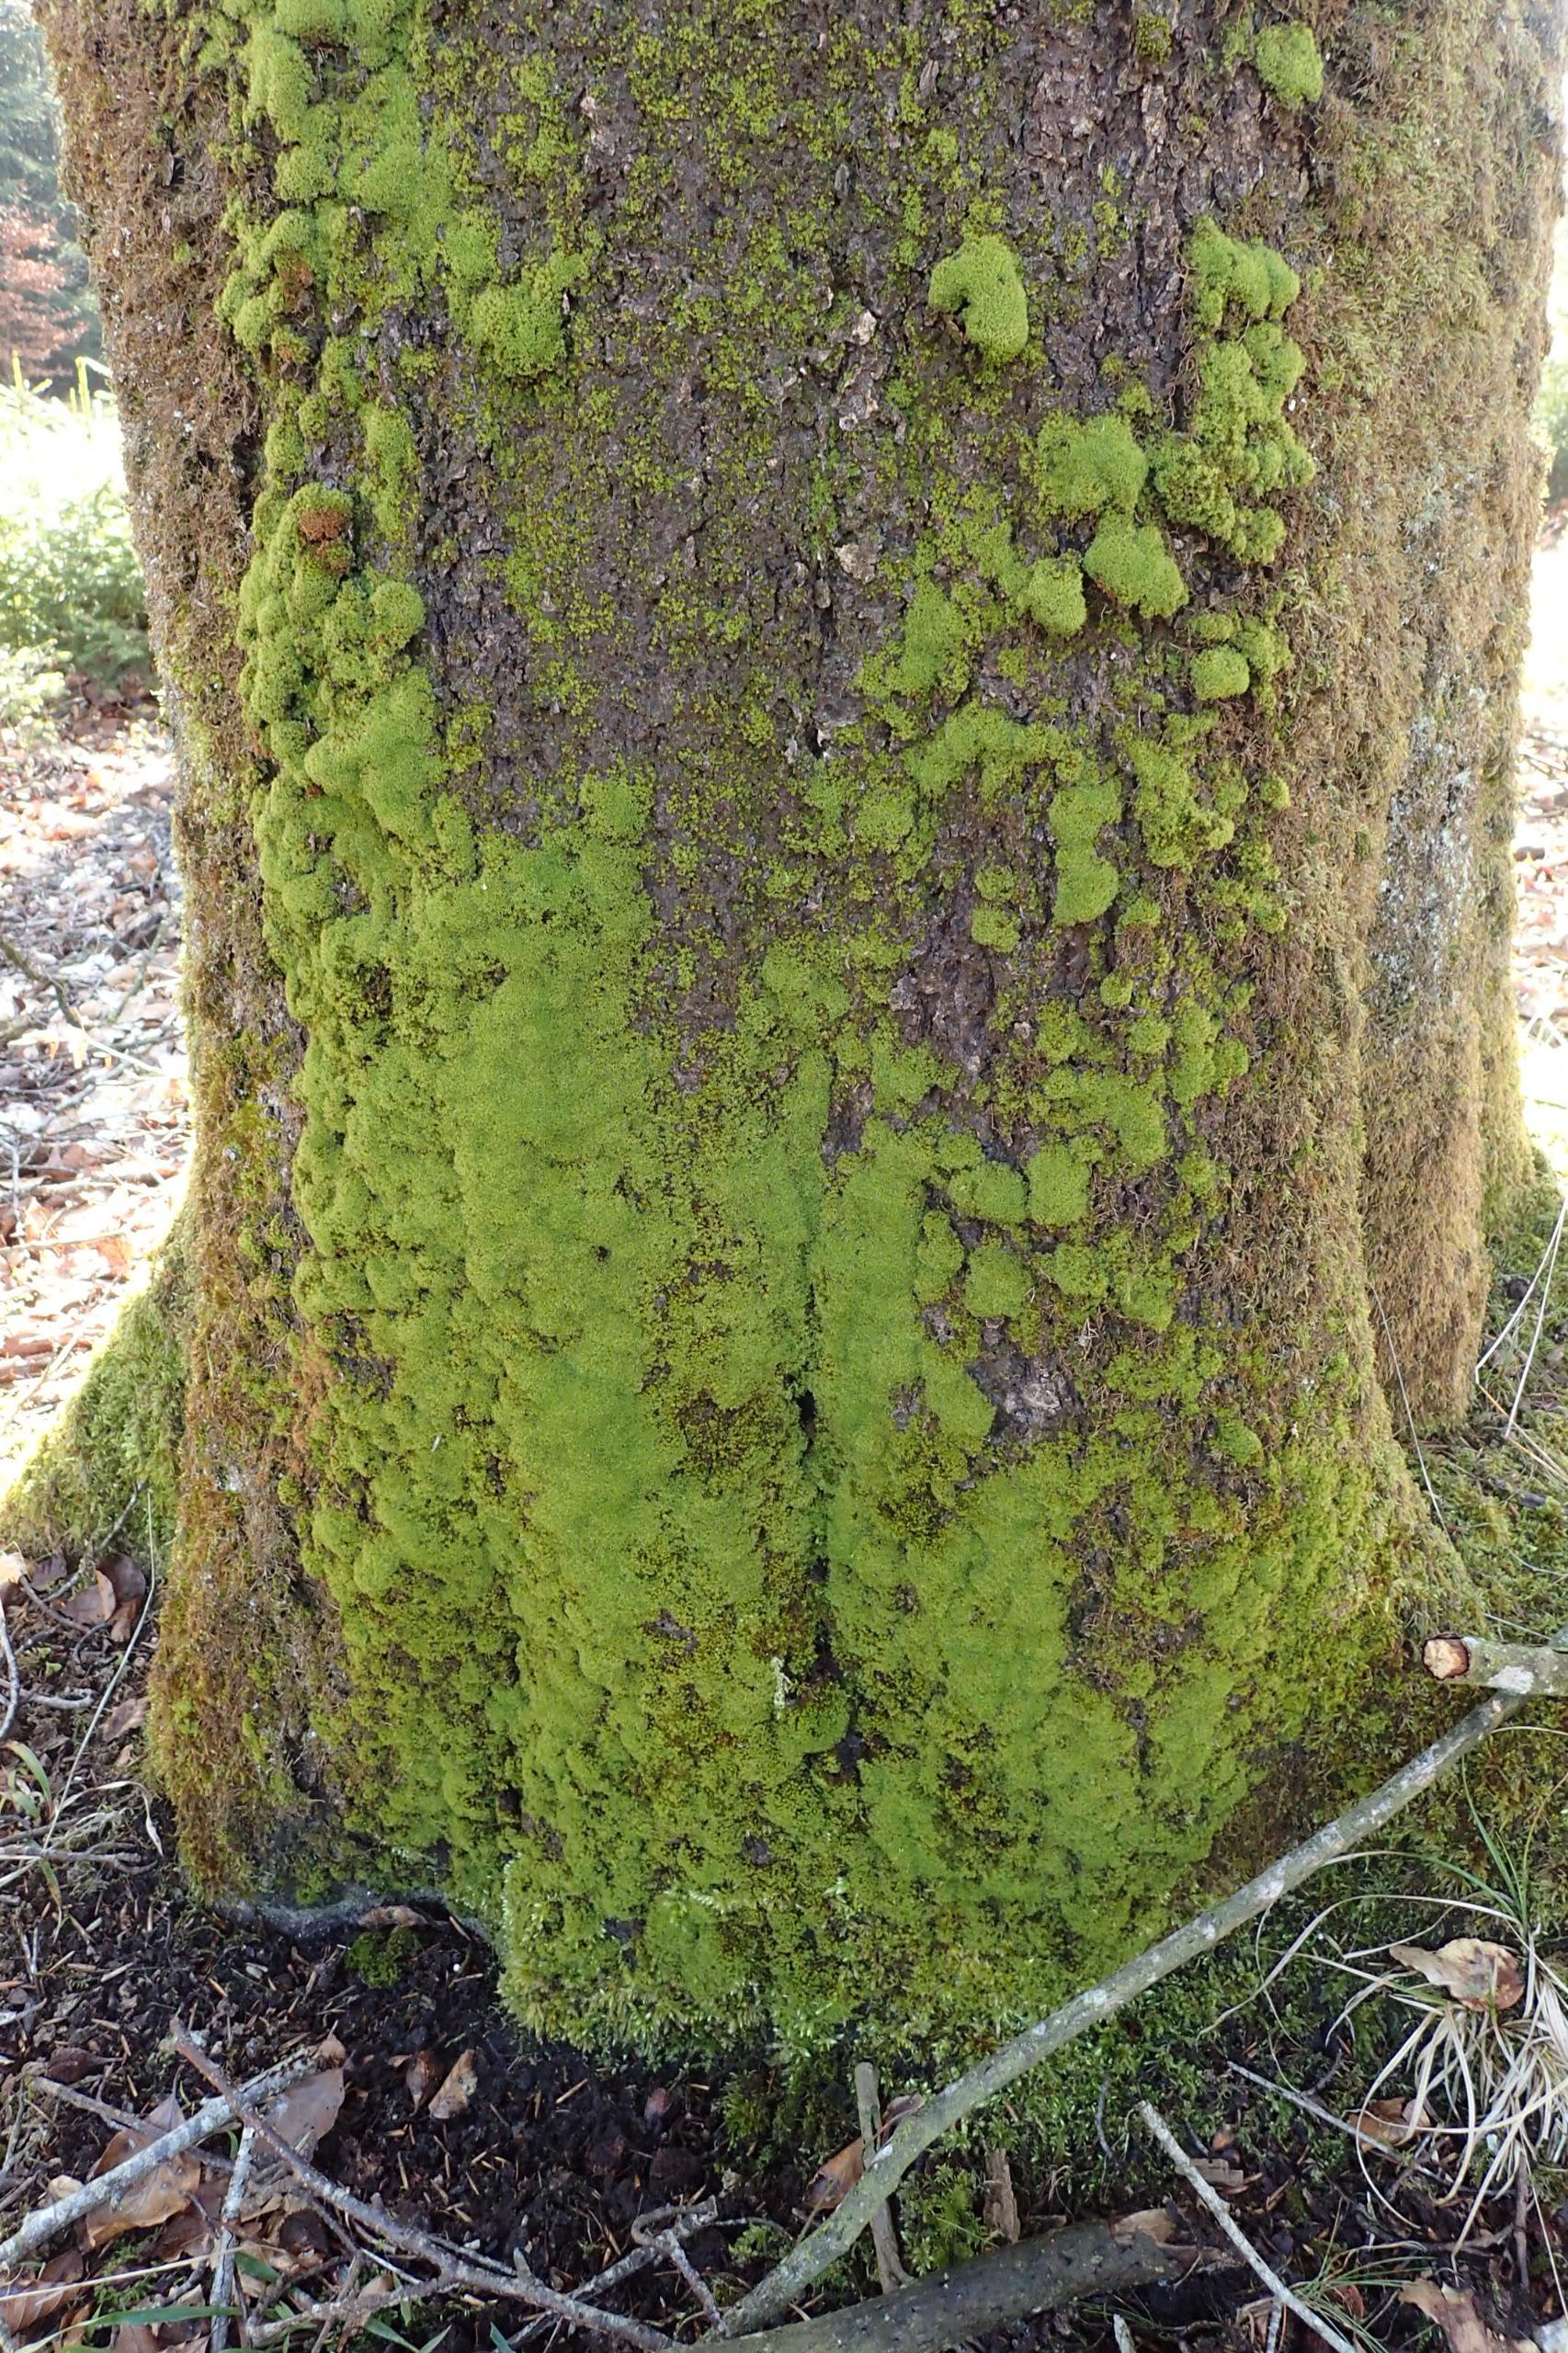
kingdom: Plantae
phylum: Bryophyta
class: Bryopsida
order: Orthotrichales
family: Orthotrichaceae
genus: Zygodon
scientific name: Zygodon conoideus
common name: Tand-køllemos
